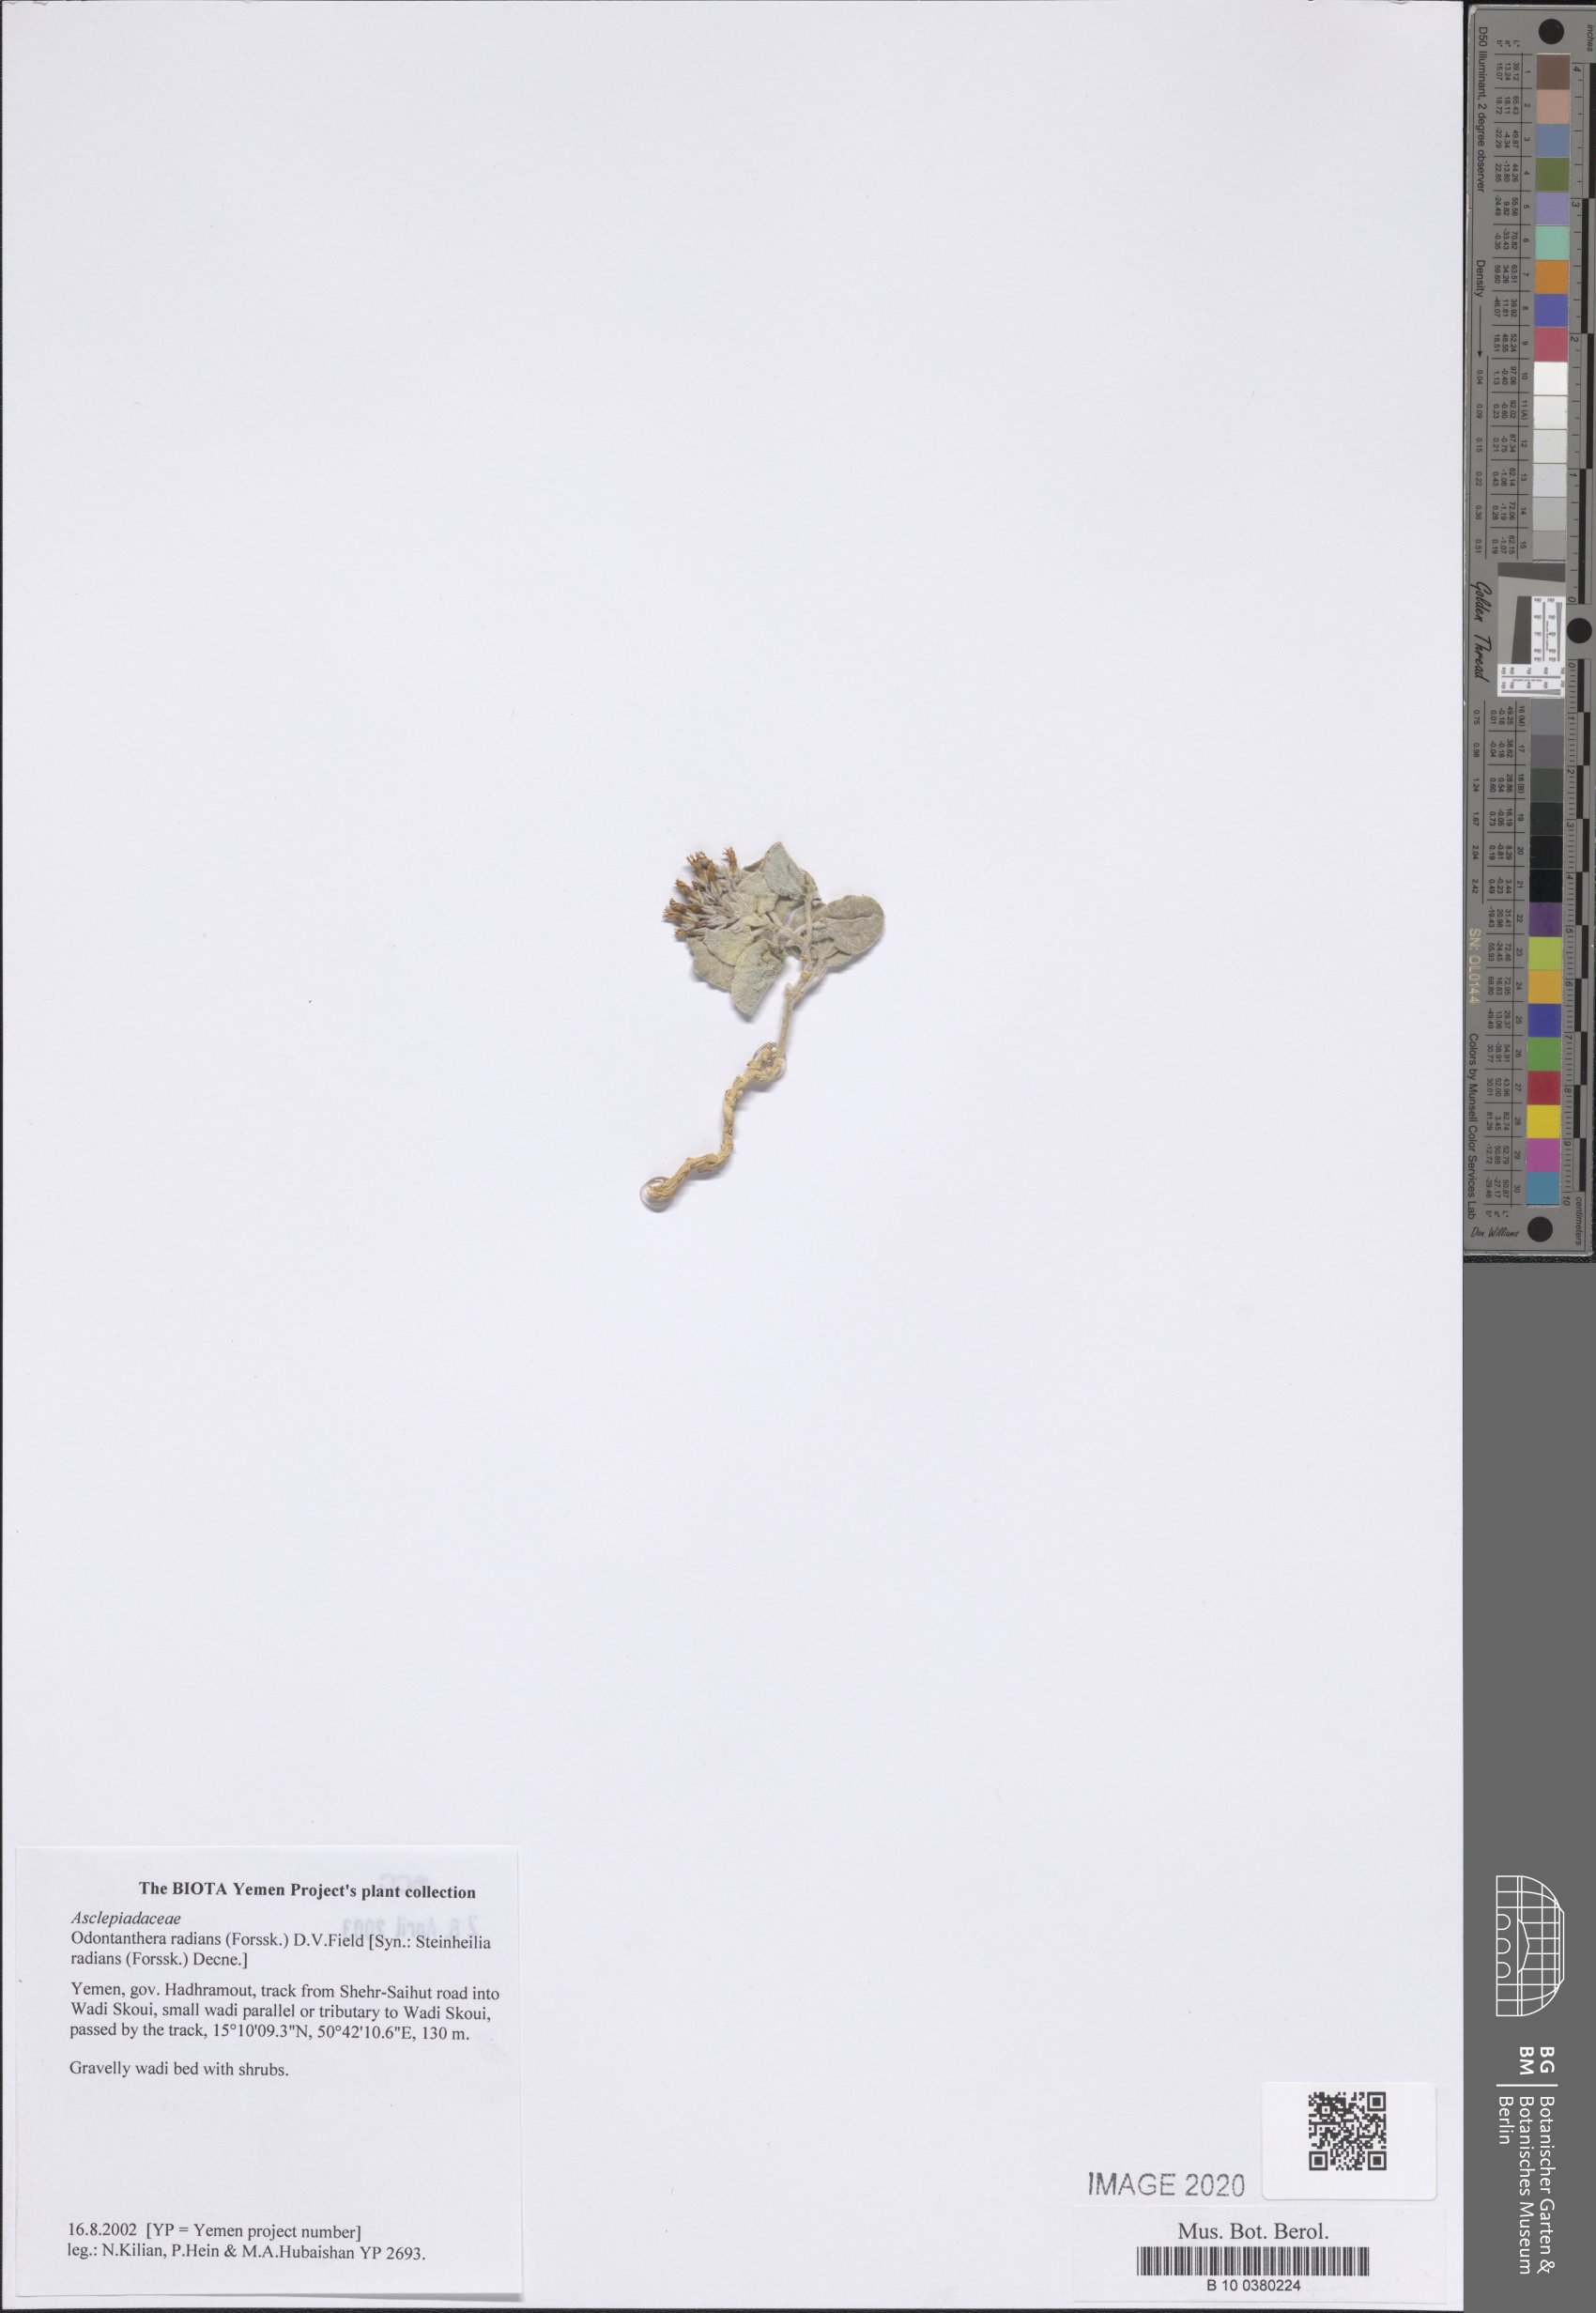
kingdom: Plantae
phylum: Tracheophyta
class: Magnoliopsida
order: Gentianales
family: Apocynaceae
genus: Cynanchum
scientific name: Cynanchum radians
